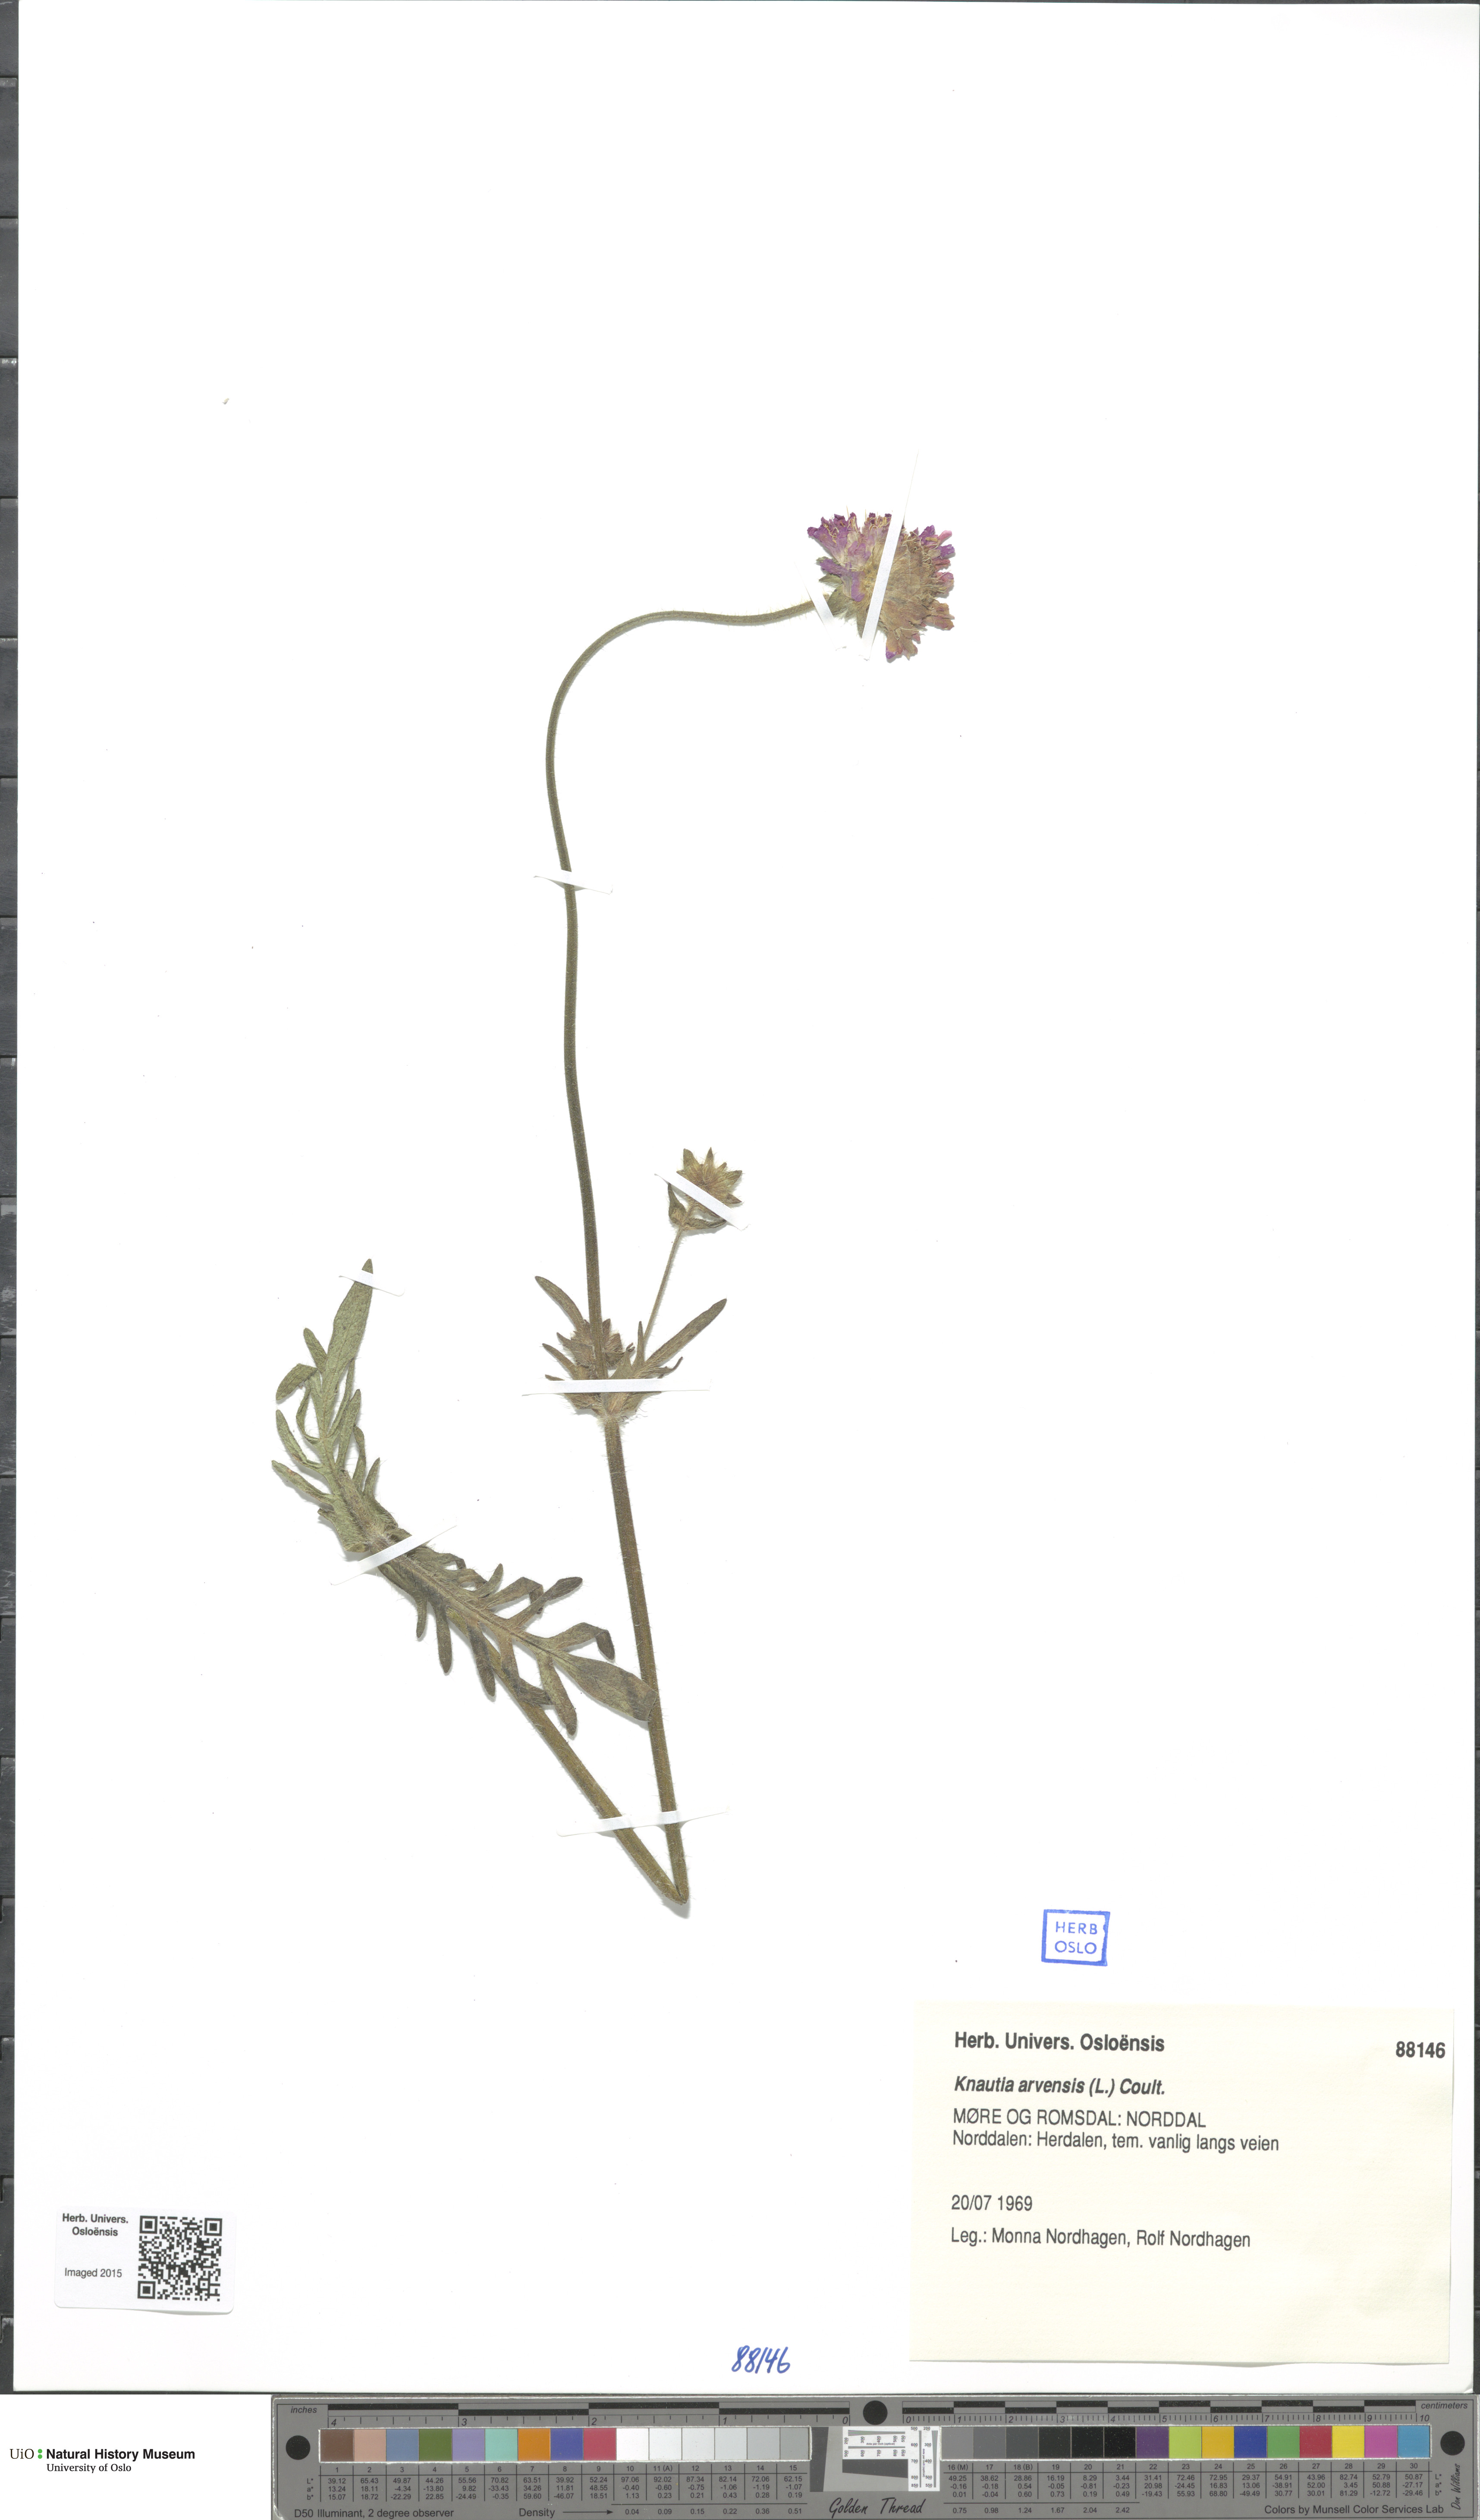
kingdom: Plantae
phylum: Tracheophyta
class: Magnoliopsida
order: Dipsacales
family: Caprifoliaceae
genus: Knautia
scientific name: Knautia arvensis
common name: Field scabiosa
